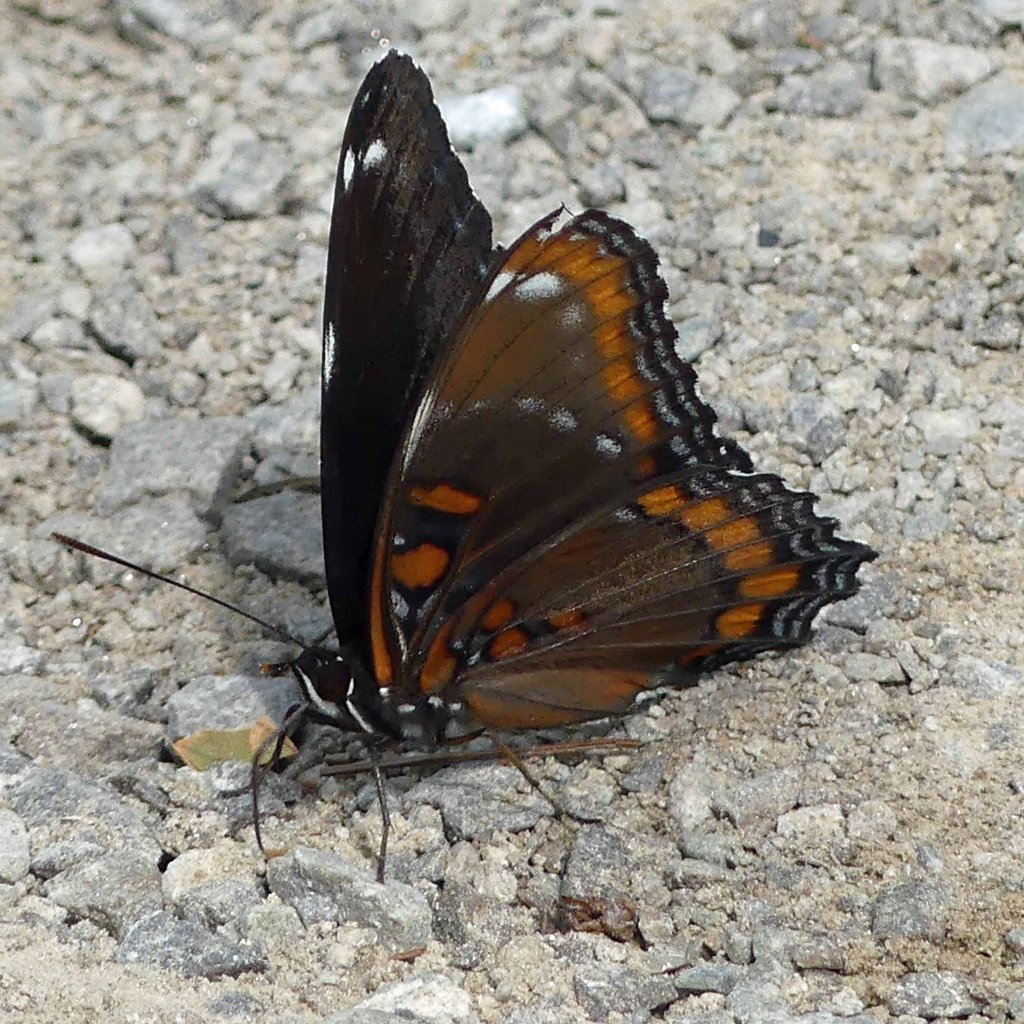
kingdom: Animalia
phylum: Arthropoda
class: Insecta
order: Lepidoptera
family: Nymphalidae
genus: Limenitis
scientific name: Limenitis astyanax
